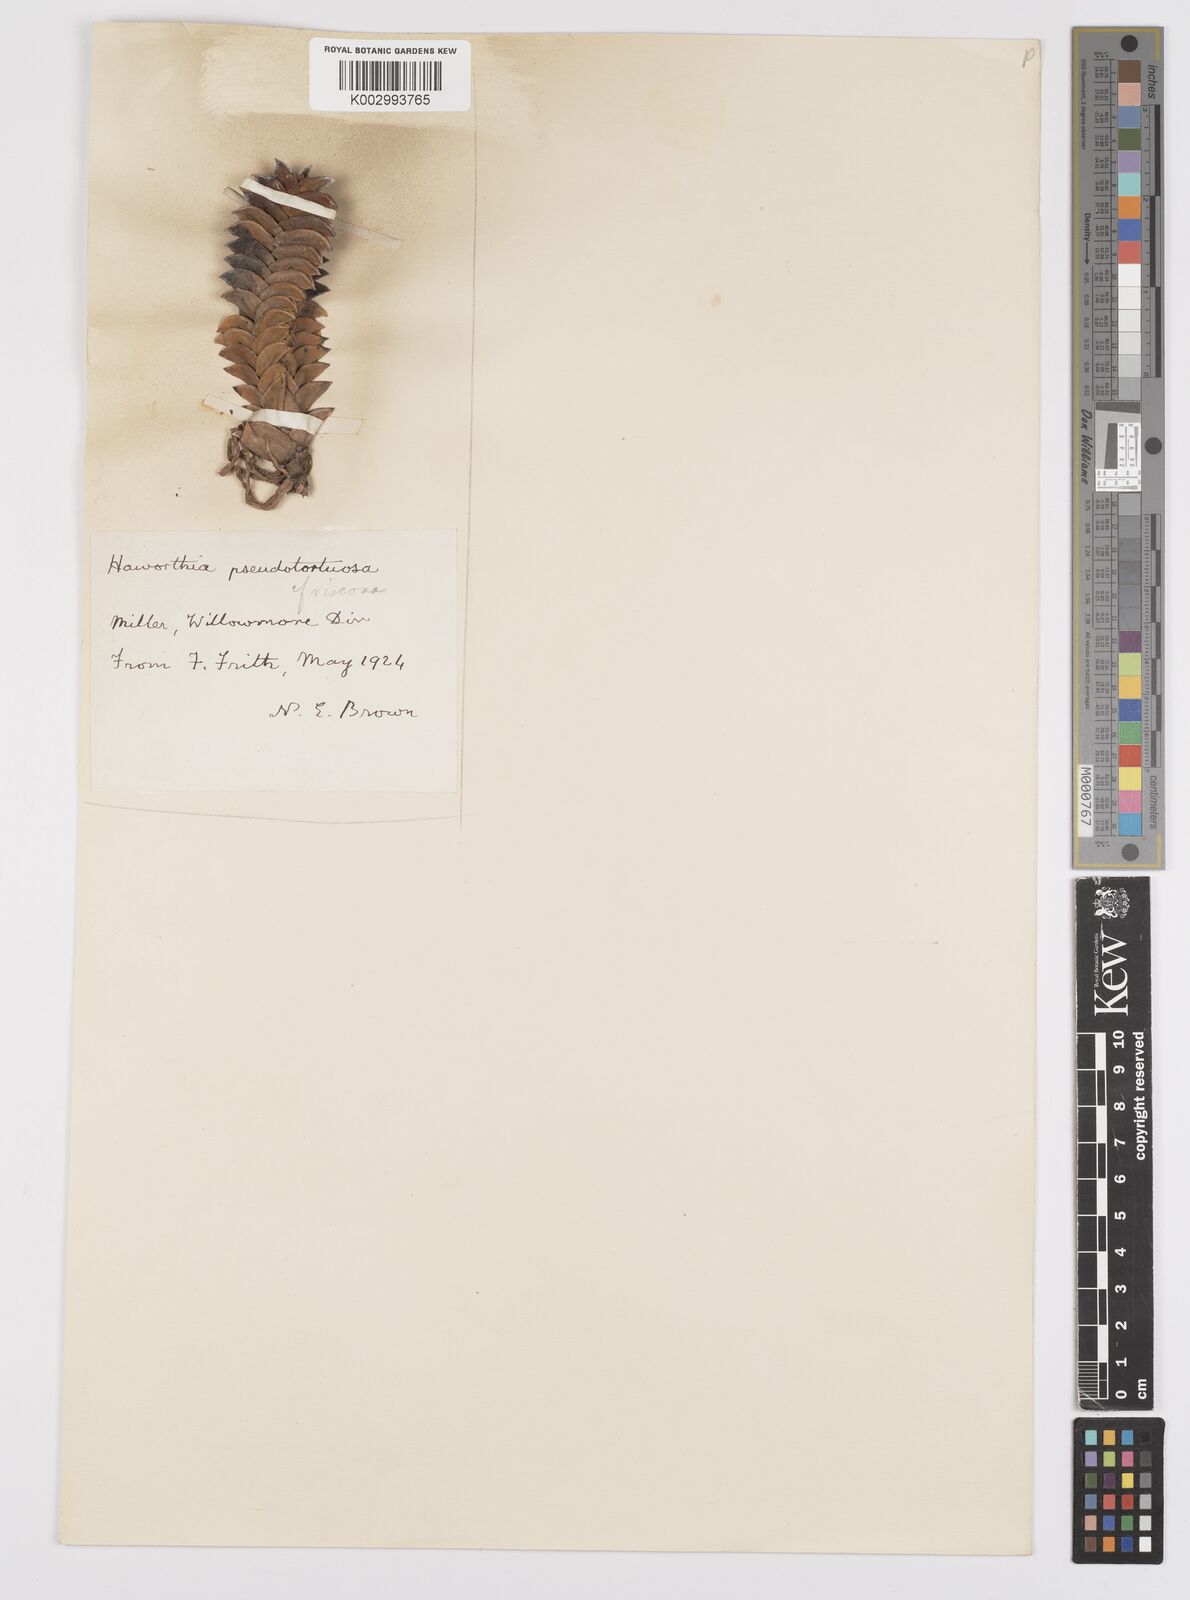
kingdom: Plantae
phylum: Tracheophyta
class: Liliopsida
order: Asparagales
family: Asphodelaceae
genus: Haworthia
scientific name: Haworthia
